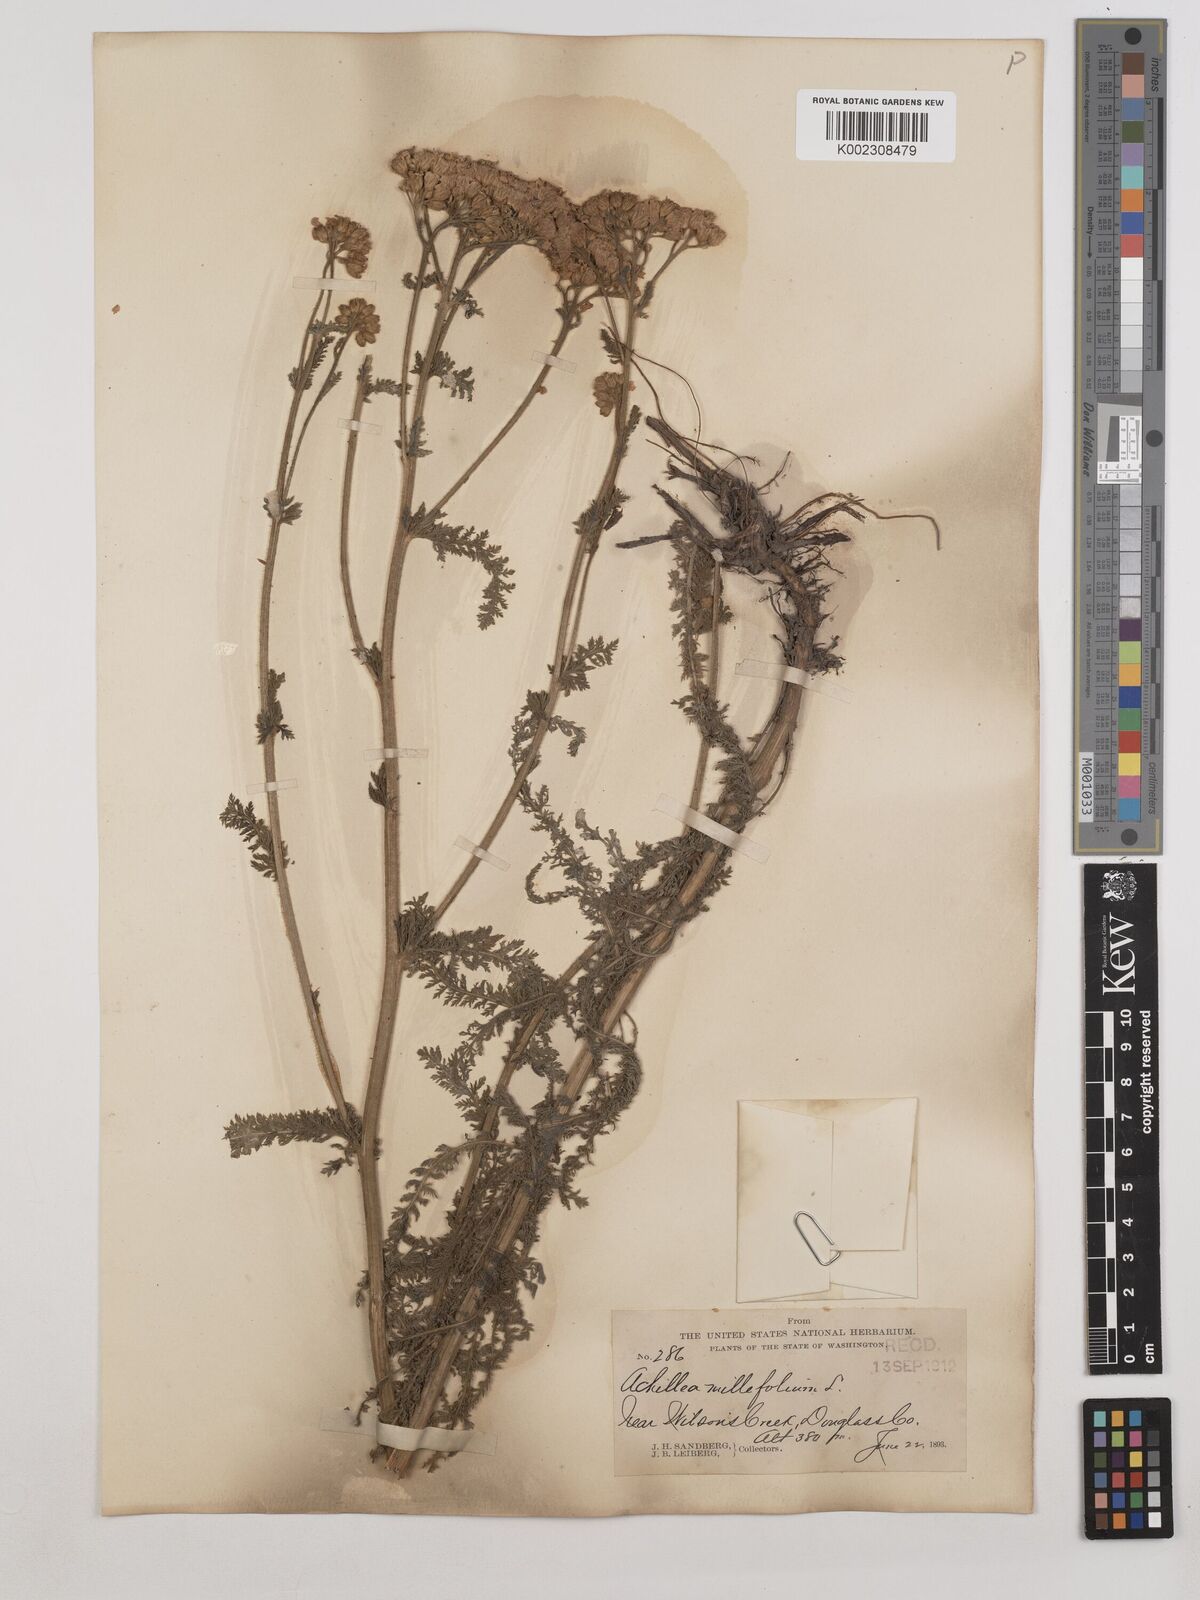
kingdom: Plantae
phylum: Tracheophyta
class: Magnoliopsida
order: Asterales
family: Asteraceae
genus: Achillea
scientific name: Achillea millefolium
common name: Yarrow
